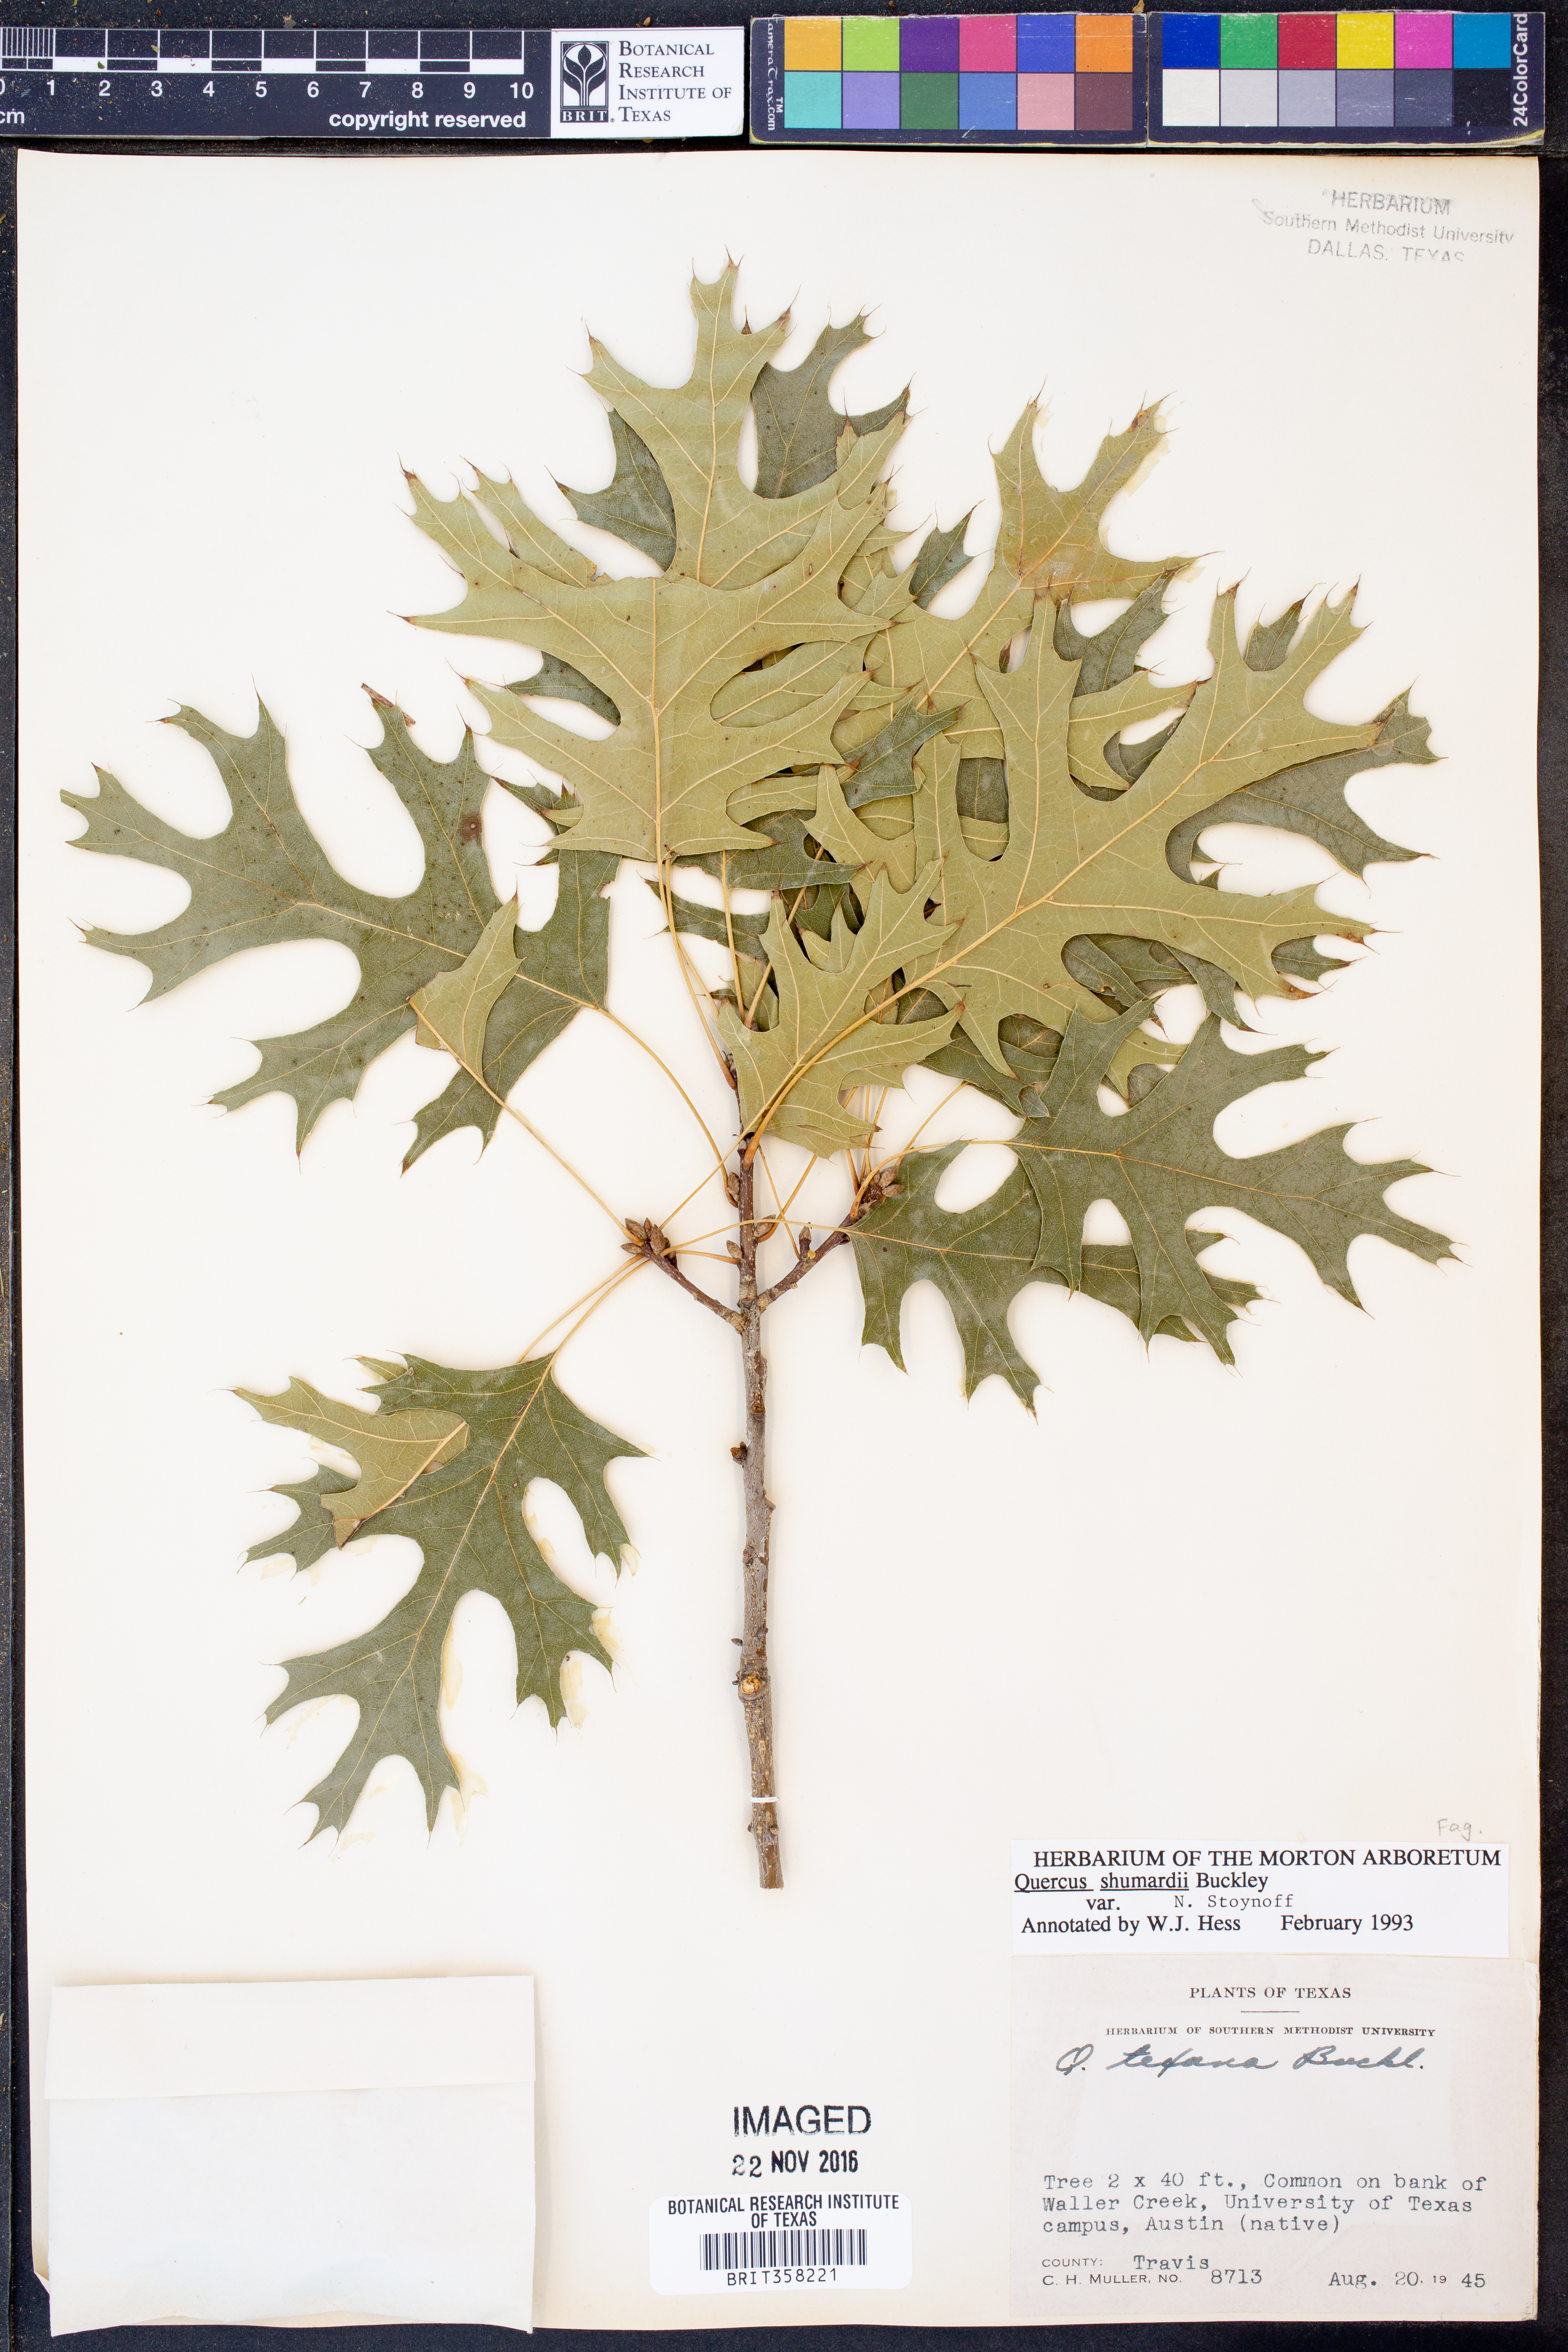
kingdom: Plantae
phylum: Tracheophyta
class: Magnoliopsida
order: Fagales
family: Fagaceae
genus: Quercus
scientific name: Quercus shumardii
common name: Shumard oak
